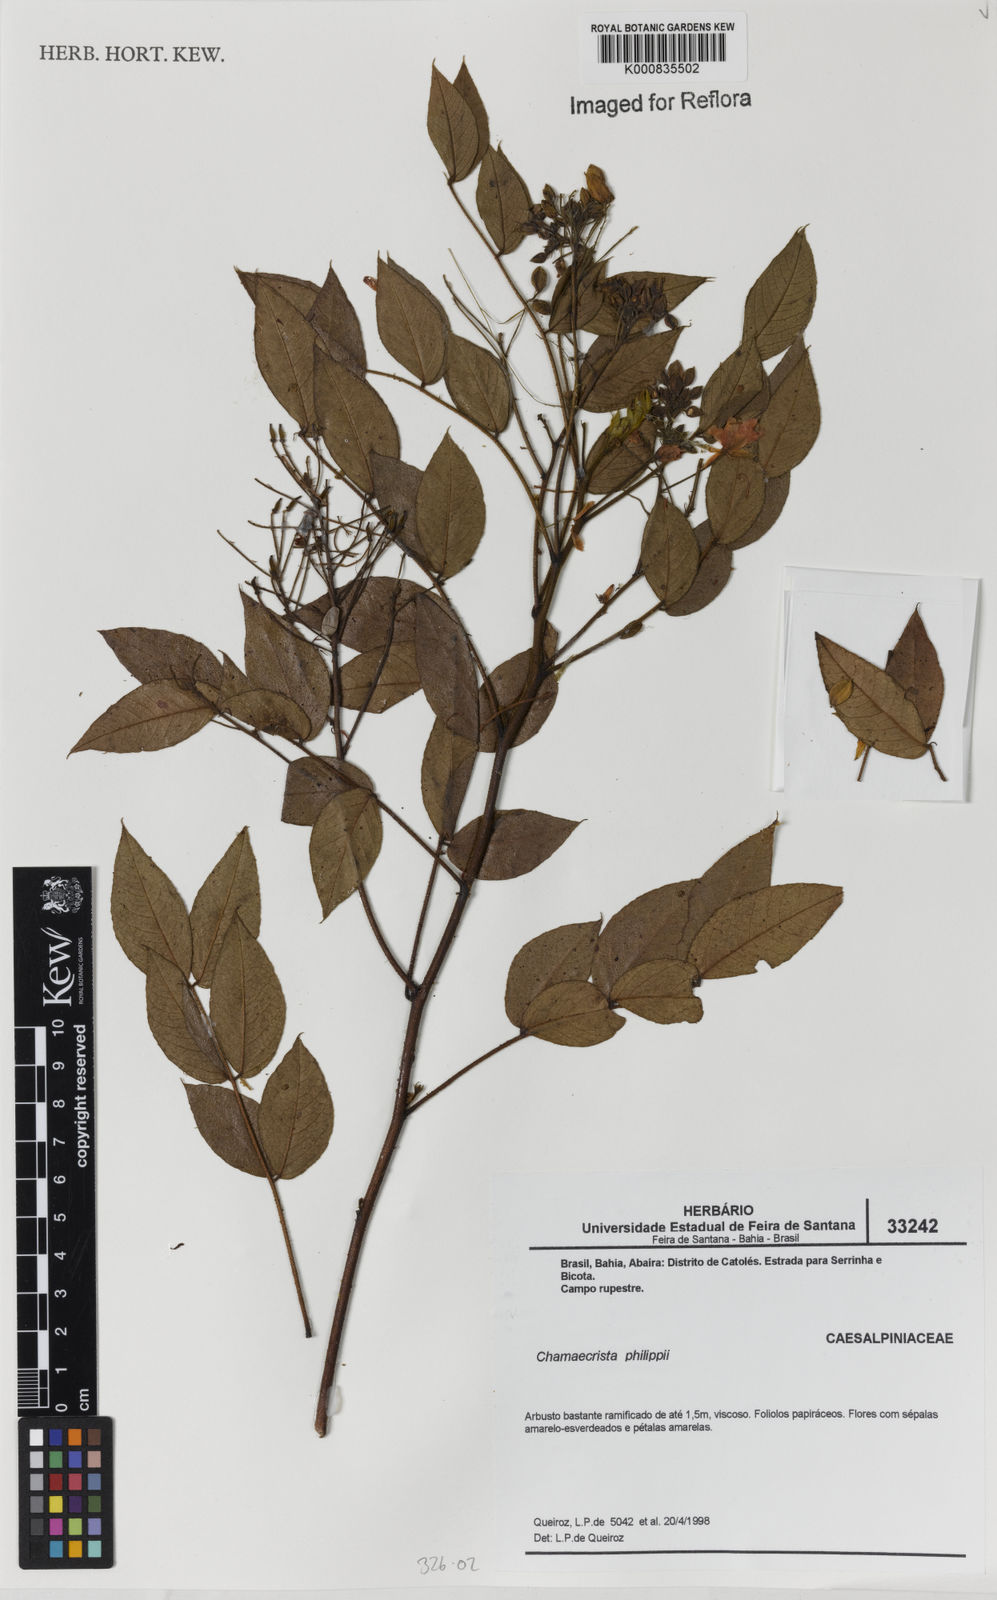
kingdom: Plantae
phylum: Tracheophyta
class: Magnoliopsida
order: Fabales
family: Fabaceae
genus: Chamaecrista
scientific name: Chamaecrista philippii
